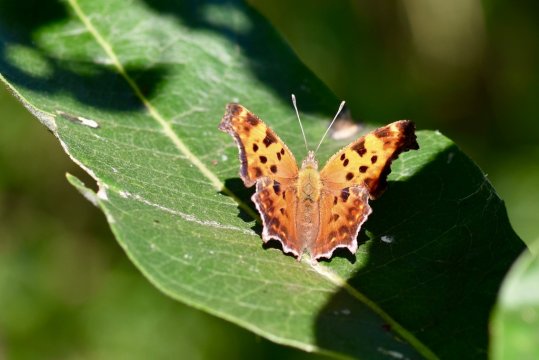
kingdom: Animalia
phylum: Arthropoda
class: Insecta
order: Lepidoptera
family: Nymphalidae
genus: Polygonia
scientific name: Polygonia comma
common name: Eastern Comma
